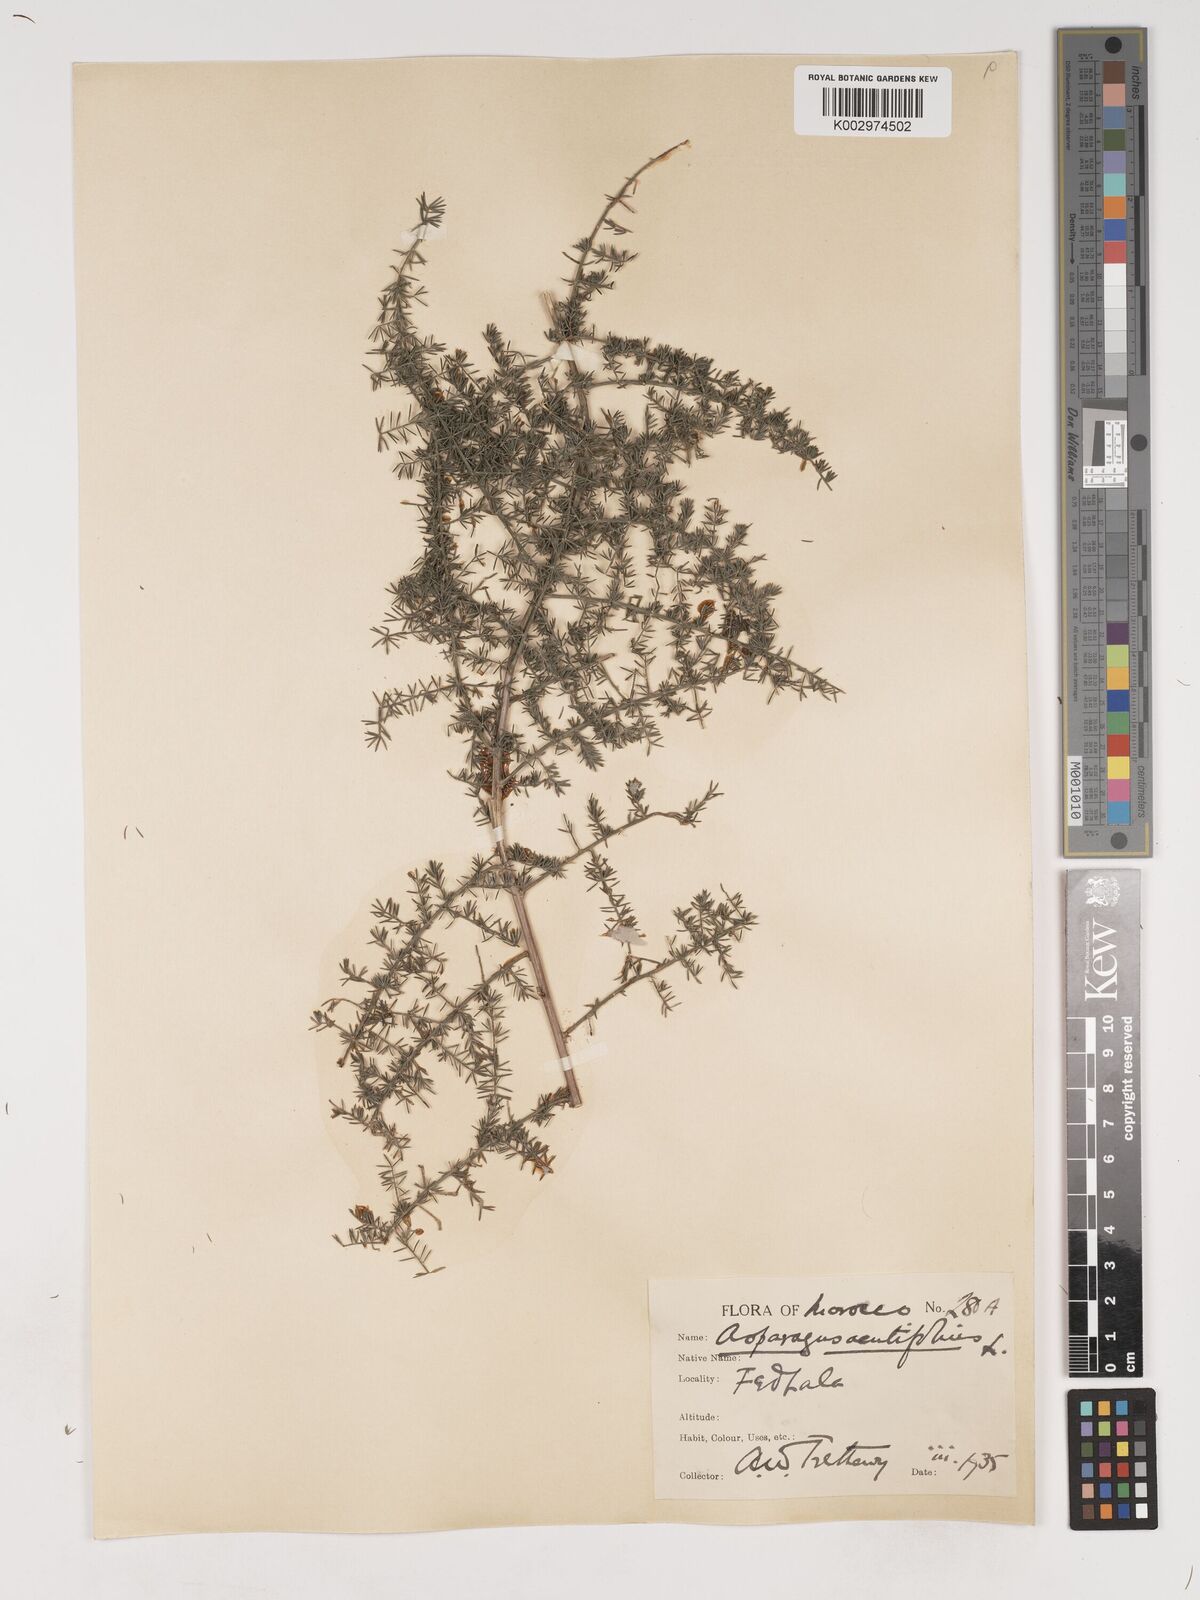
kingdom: Plantae
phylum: Tracheophyta
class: Liliopsida
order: Asparagales
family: Asparagaceae
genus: Asparagus
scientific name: Asparagus acutifolius
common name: Wild asparagus
